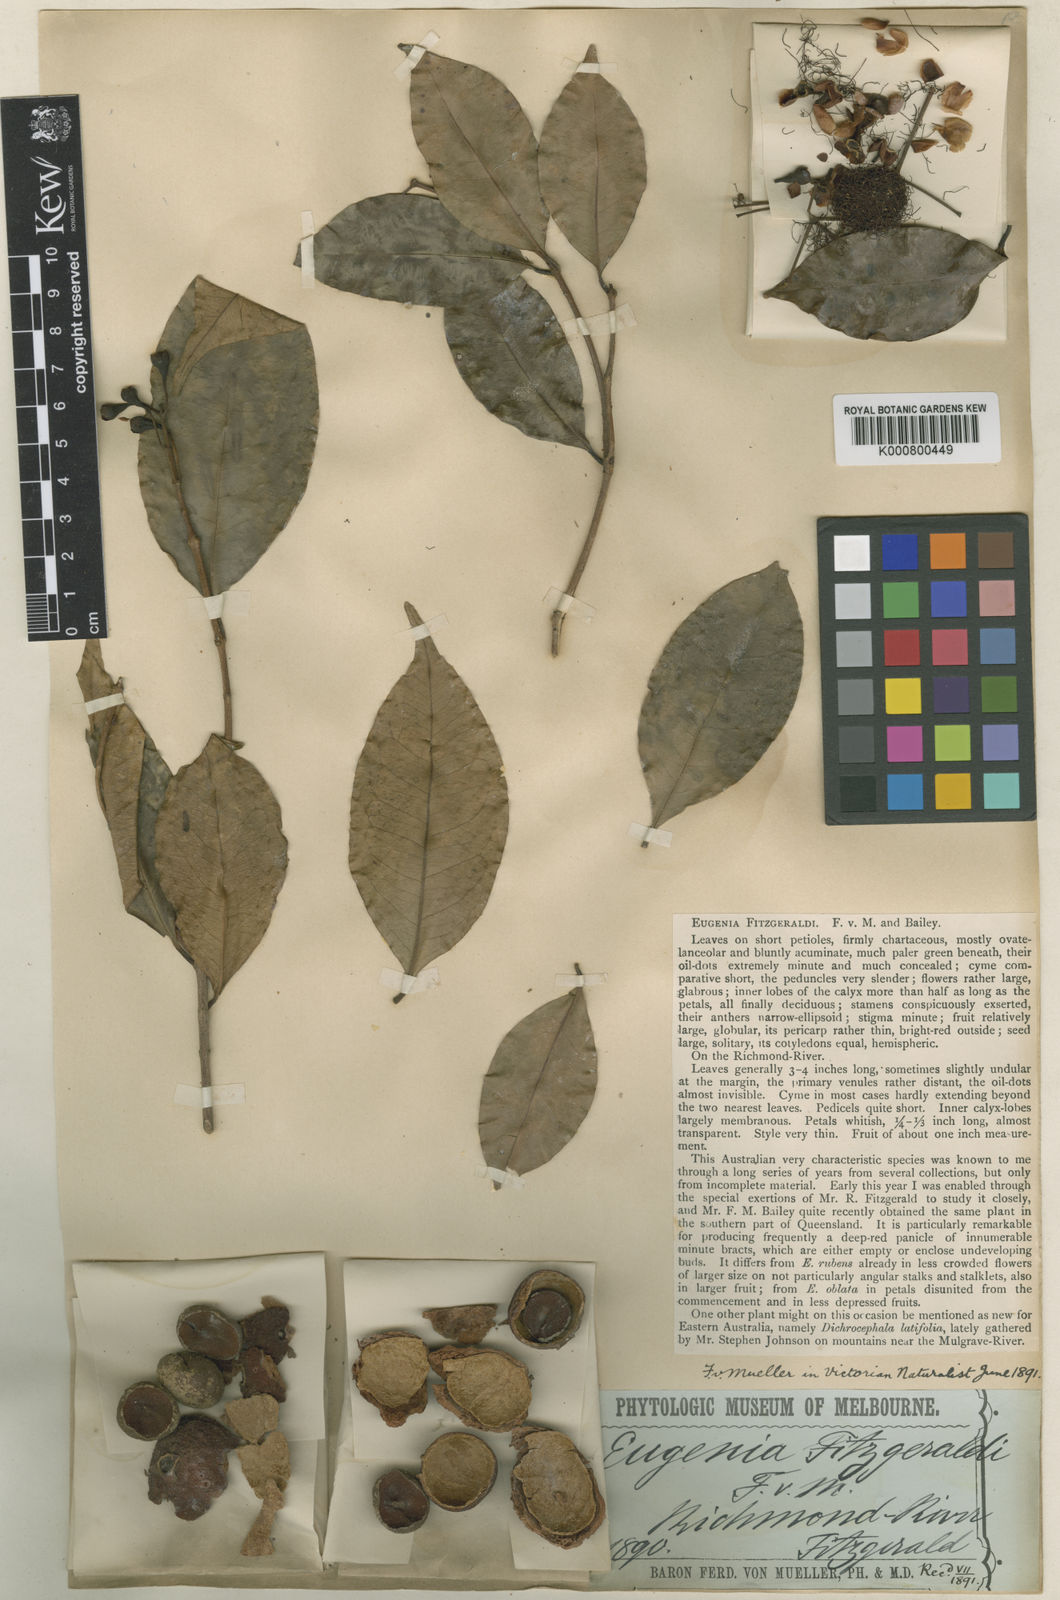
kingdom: Plantae
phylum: Tracheophyta
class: Magnoliopsida
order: Myrtales
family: Myrtaceae
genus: Syzygium
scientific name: Syzygium hodgkinsoniae
